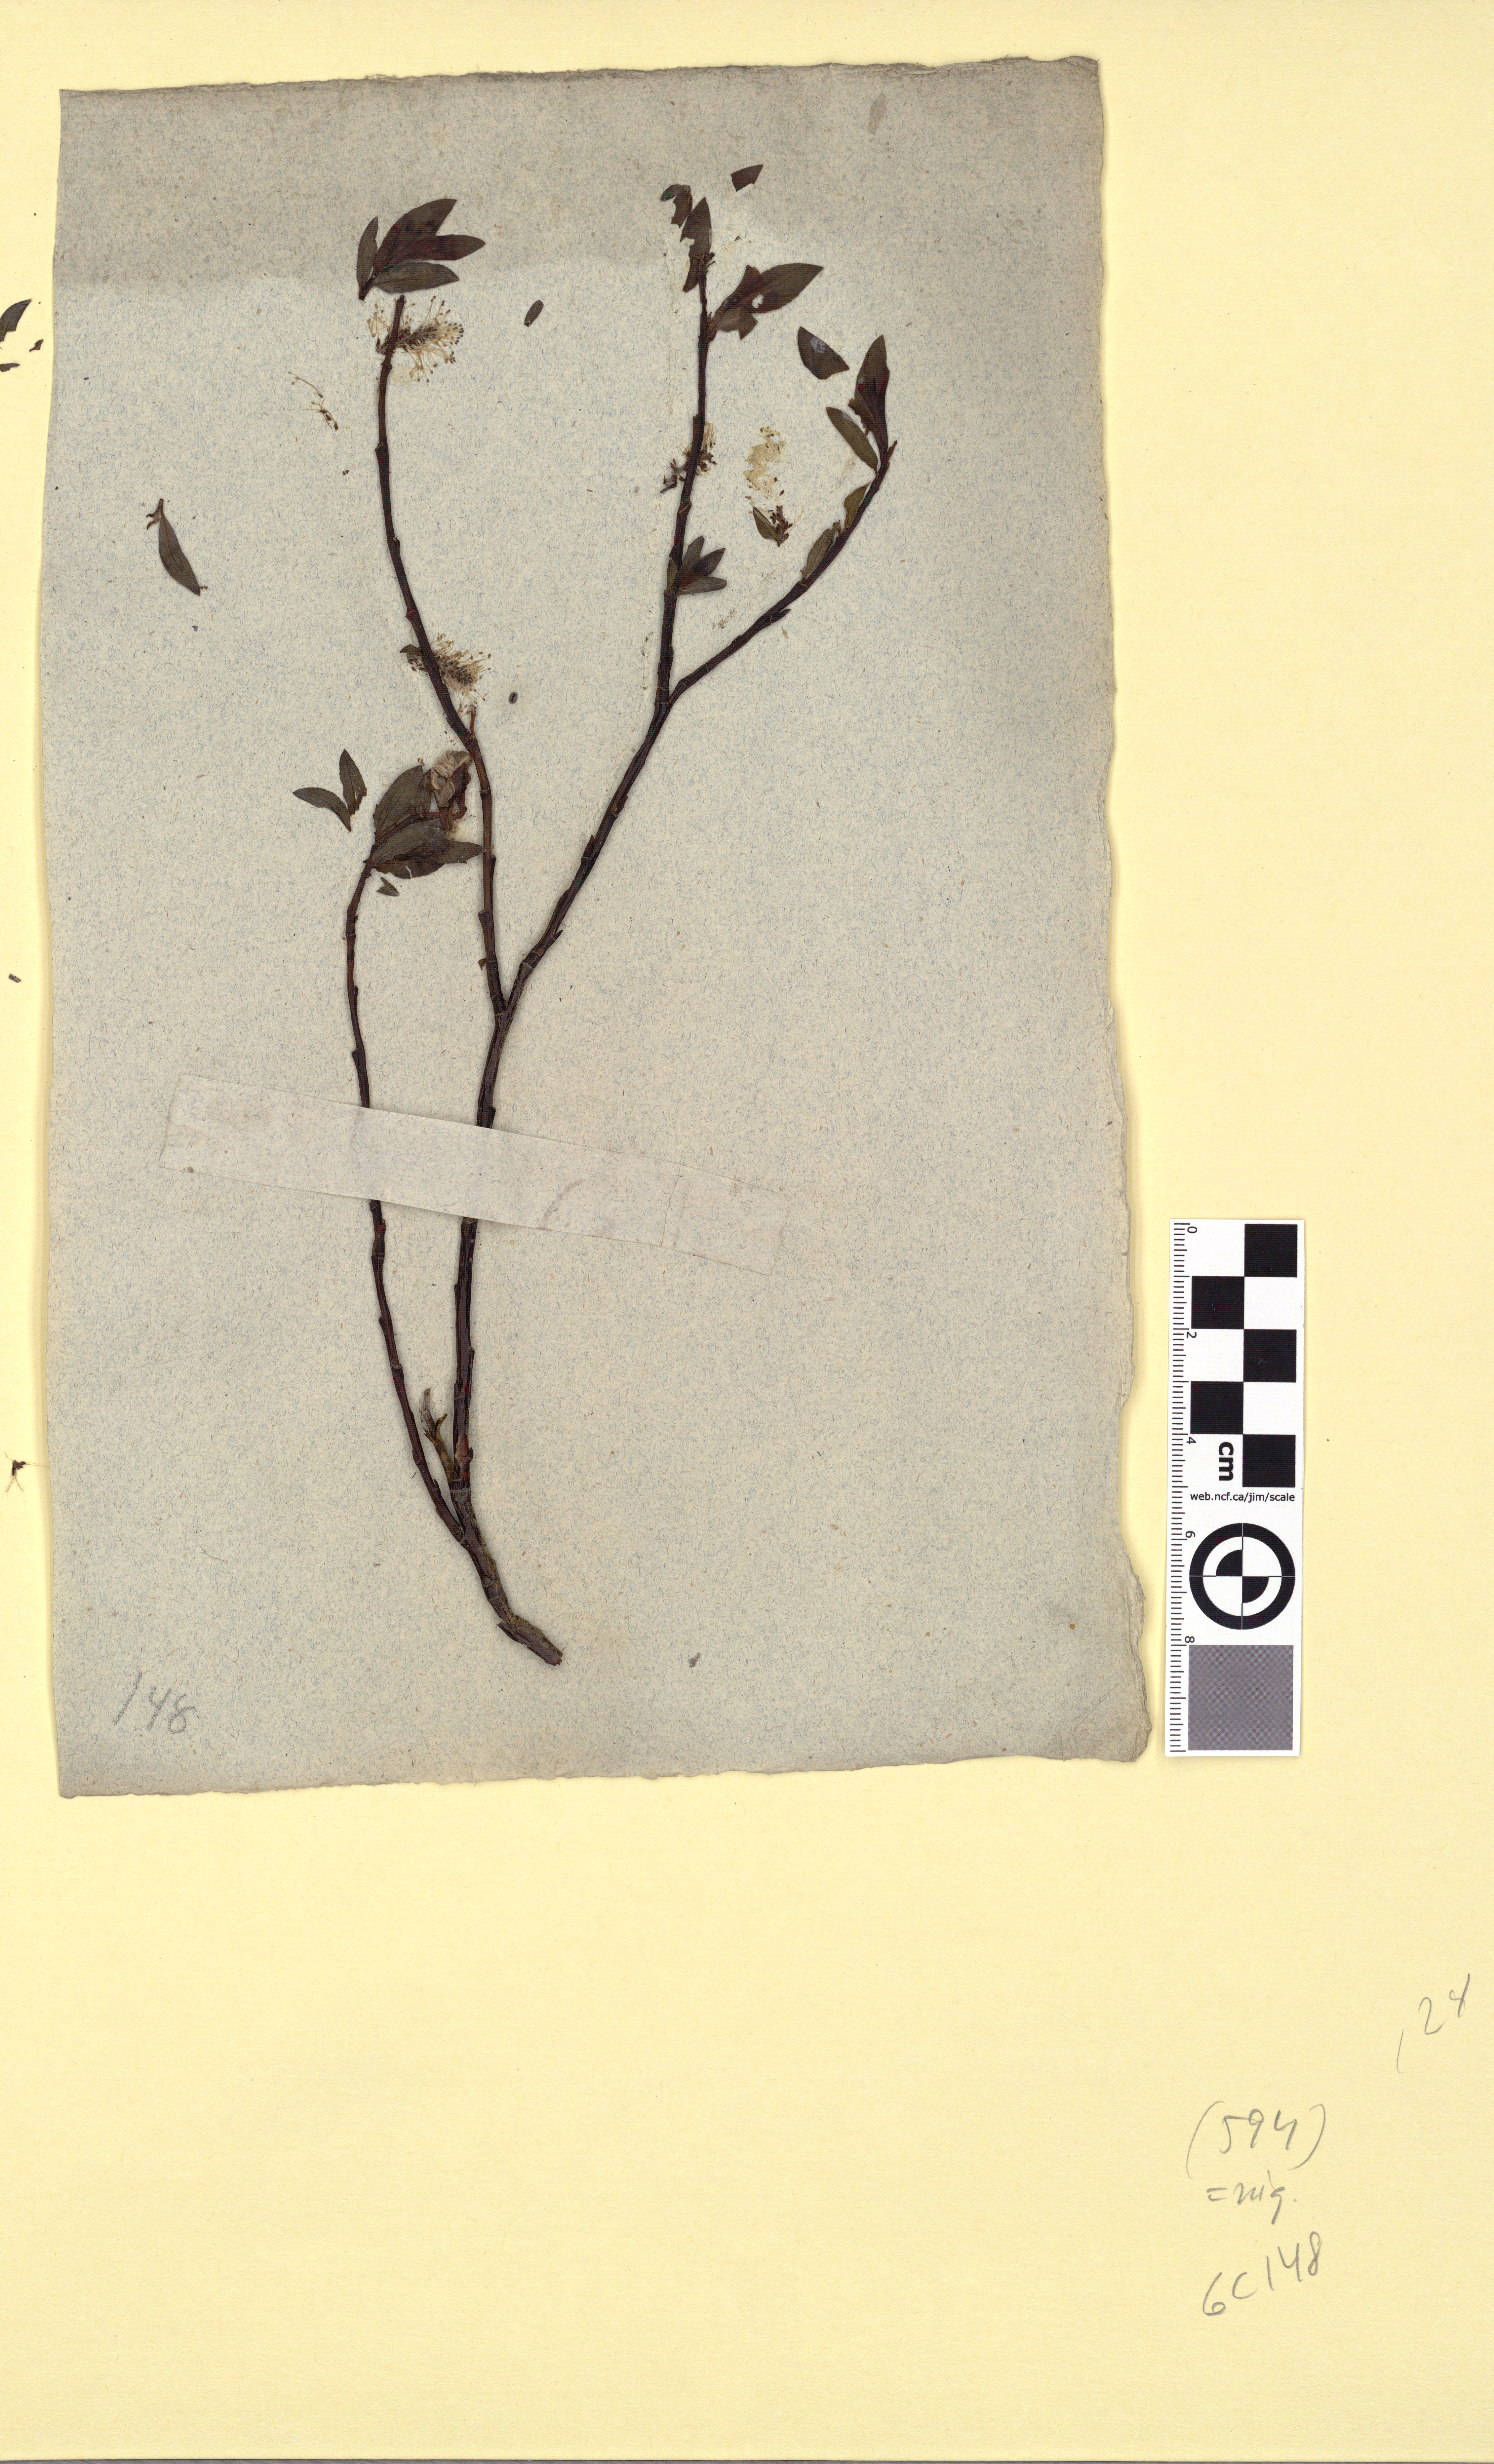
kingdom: Plantae
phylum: Tracheophyta
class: Magnoliopsida
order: Malpighiales
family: Salicaceae
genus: Salix
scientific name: Salix myrsinifolia
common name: Dark-leaved willow
